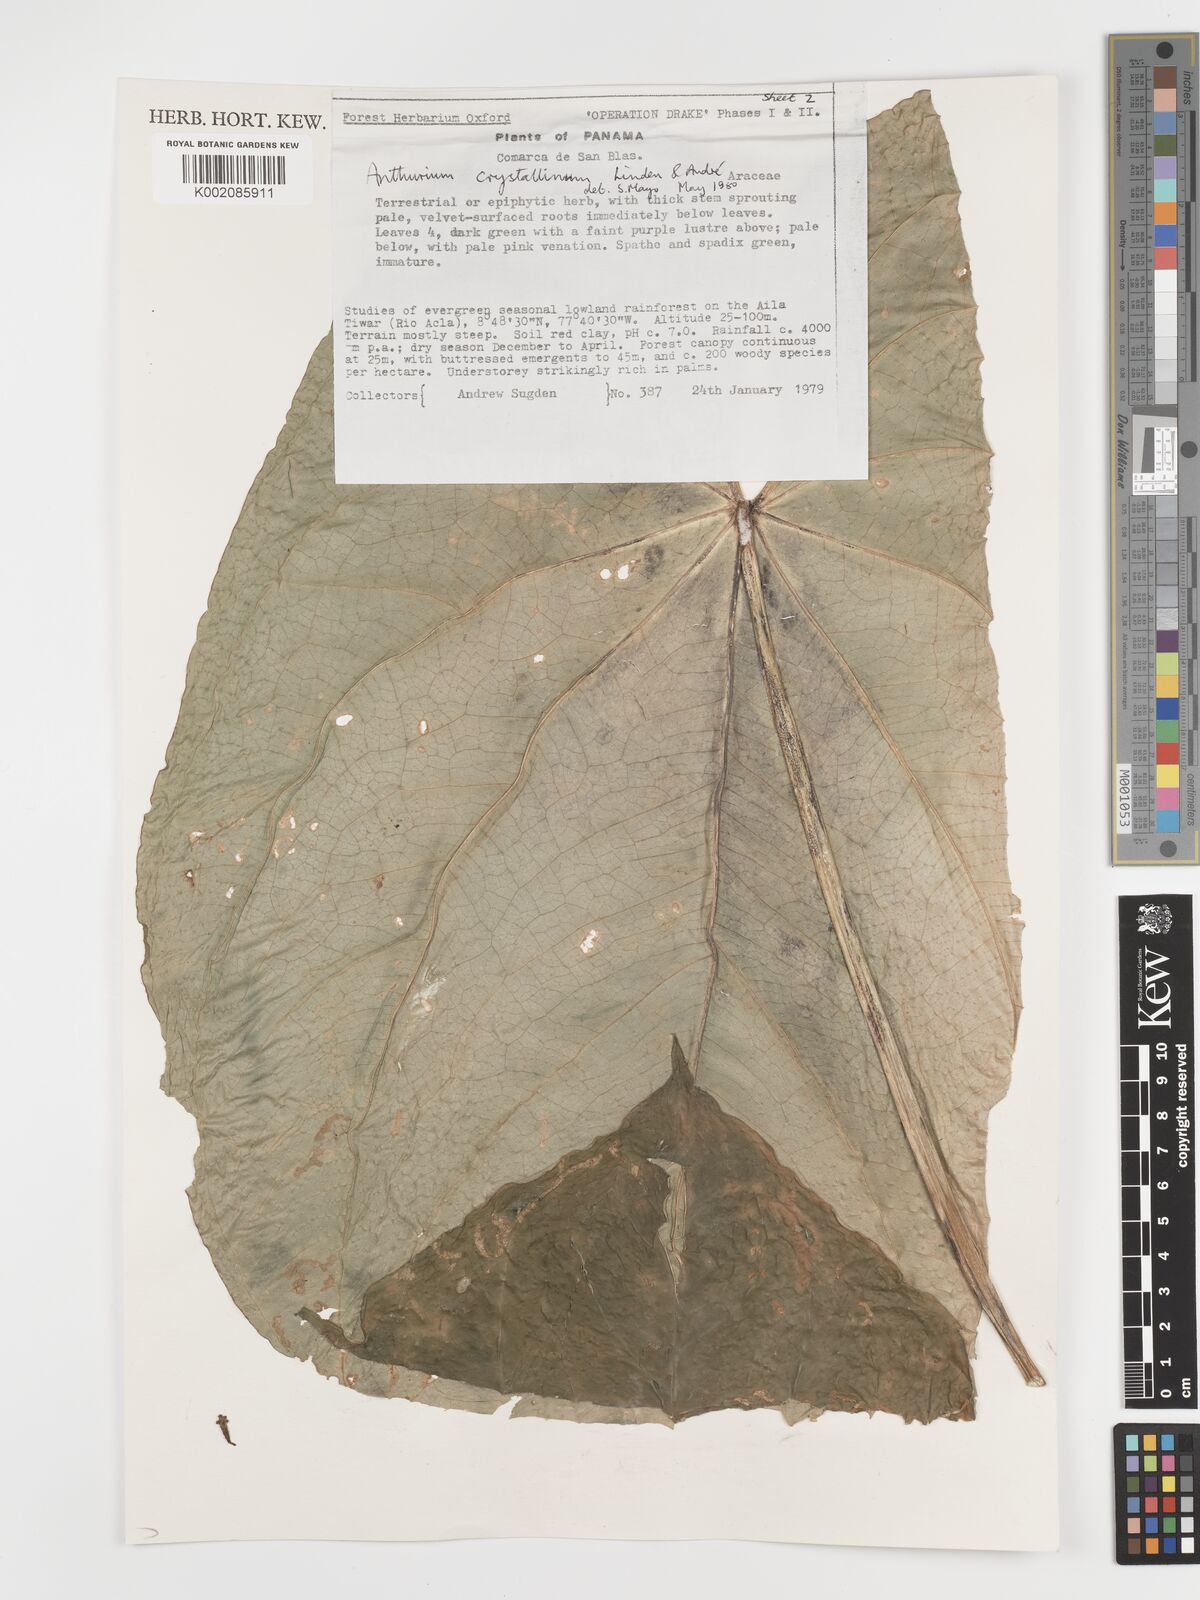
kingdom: Plantae
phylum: Tracheophyta
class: Liliopsida
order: Alismatales
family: Araceae
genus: Anthurium
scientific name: Anthurium crystallinum
